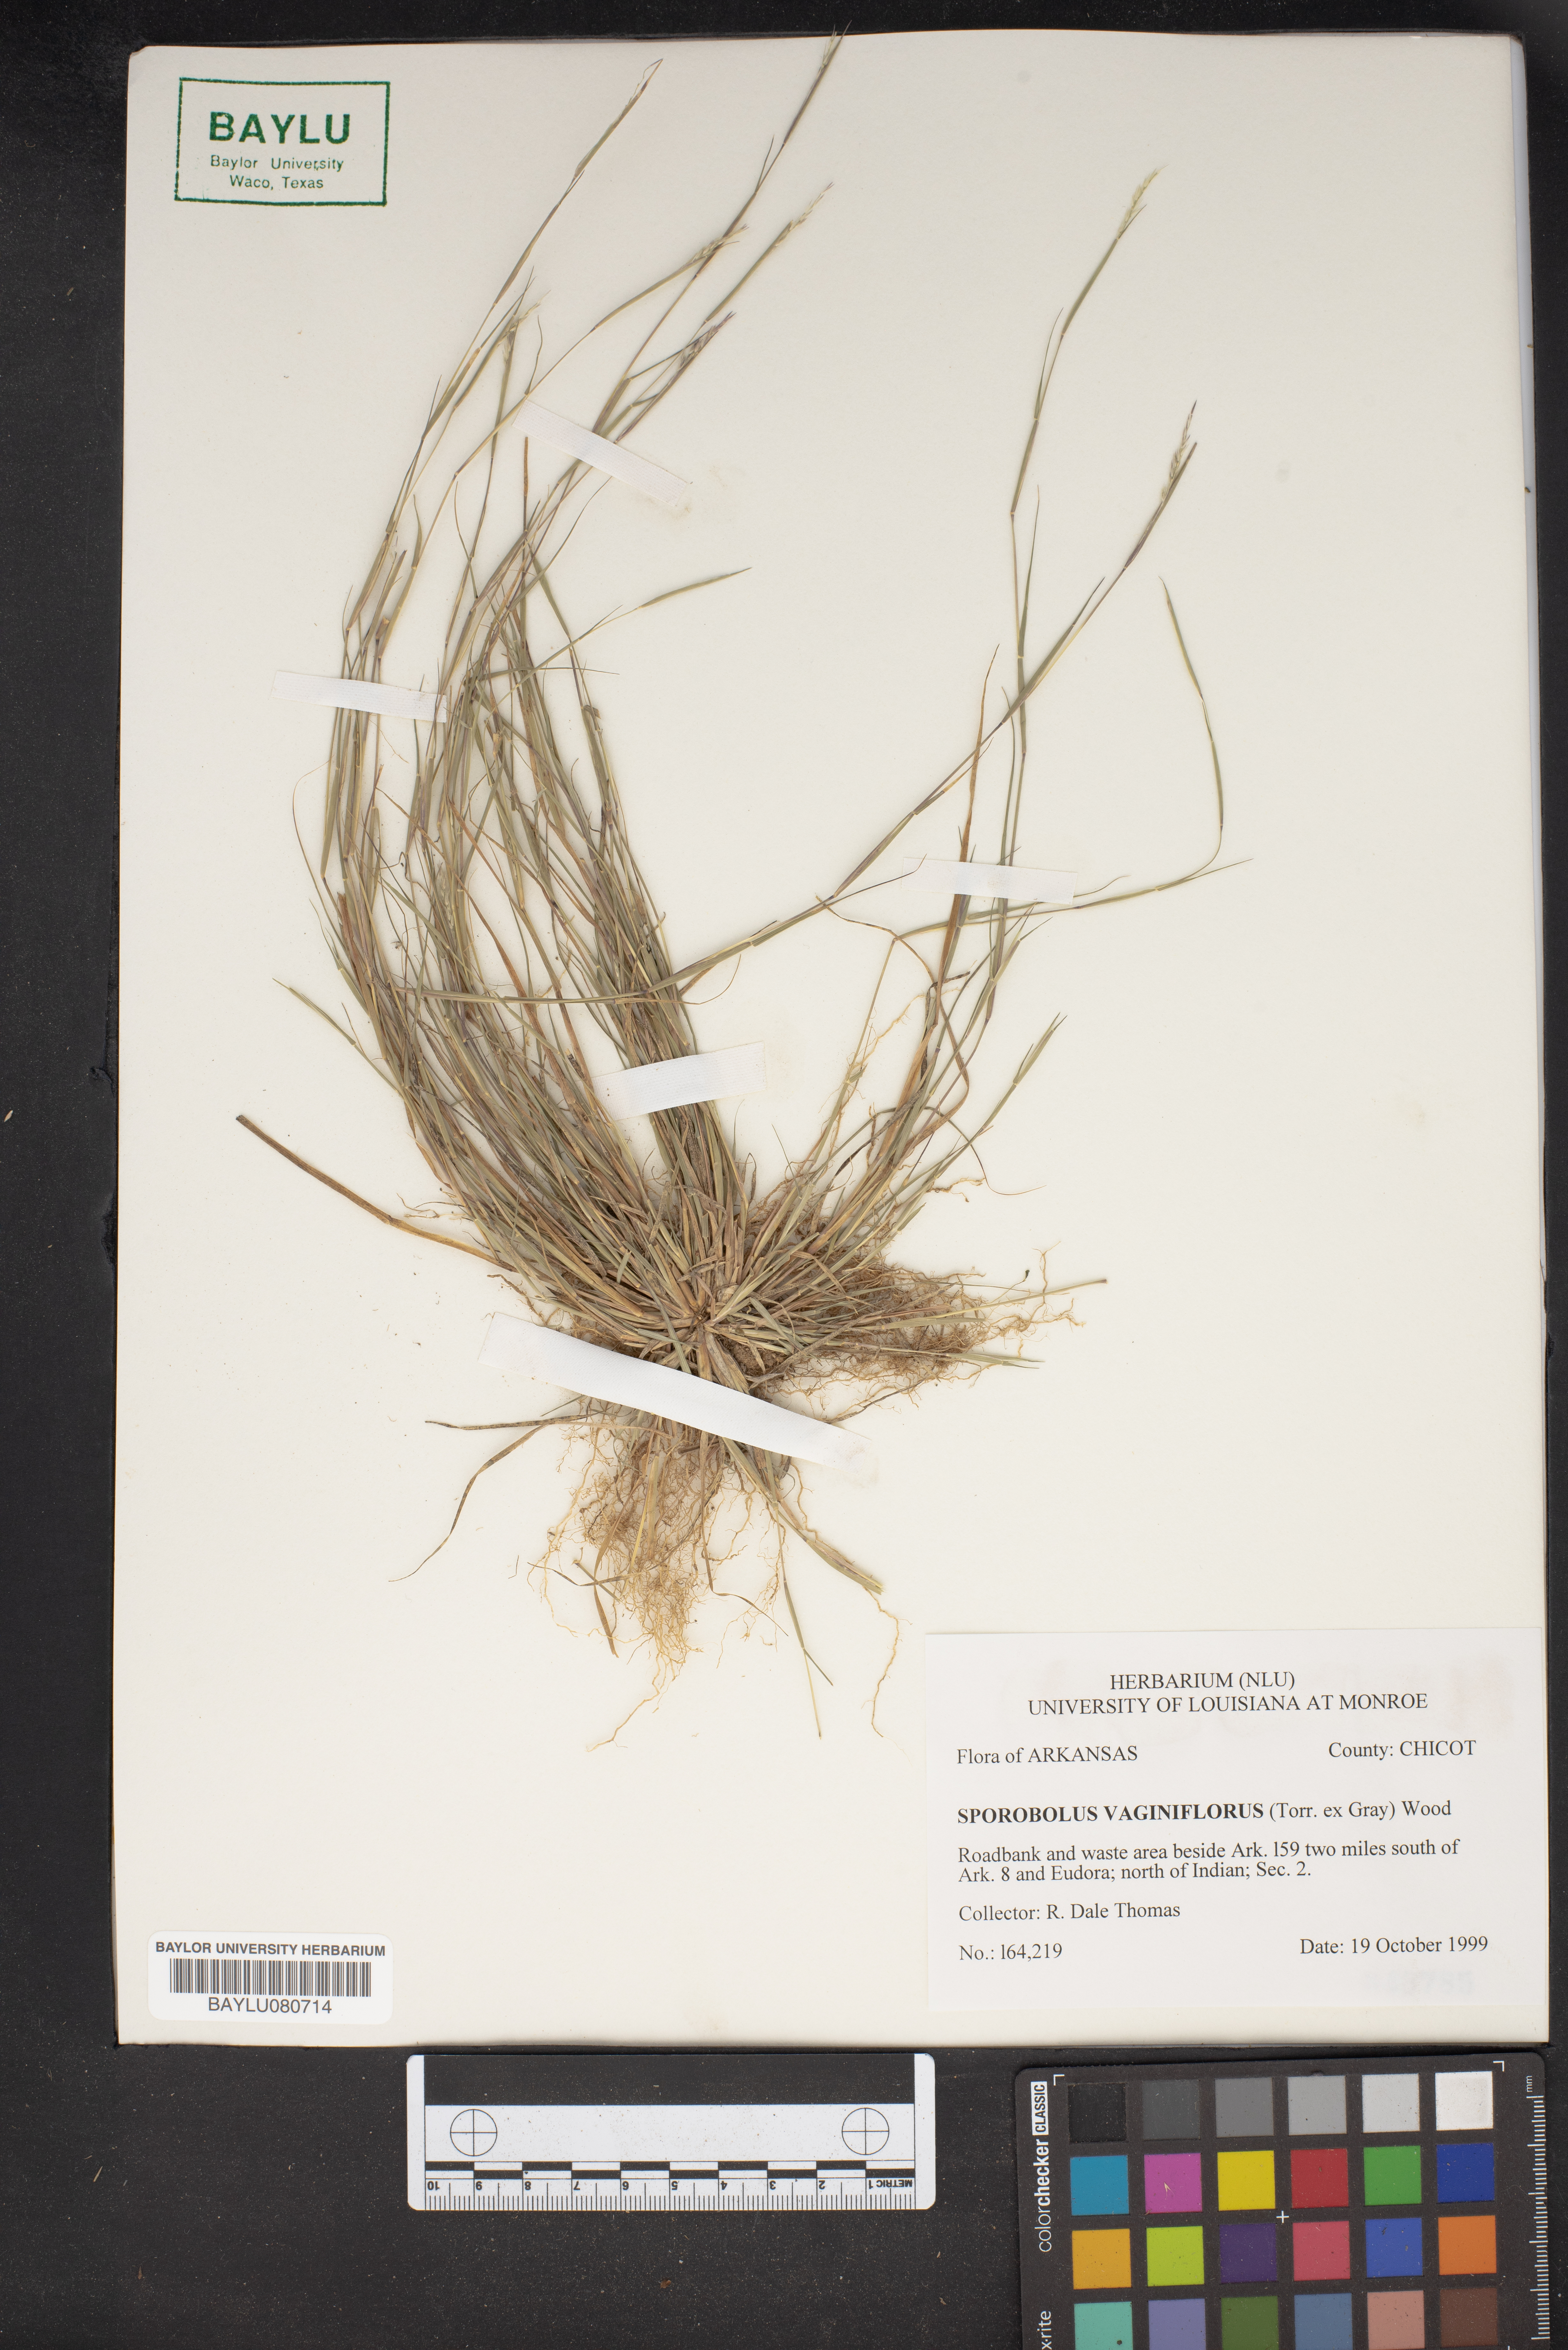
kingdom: Plantae
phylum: Tracheophyta
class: Liliopsida
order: Poales
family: Poaceae
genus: Sporobolus
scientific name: Sporobolus vaginiflorus
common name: Poverty dropseed
